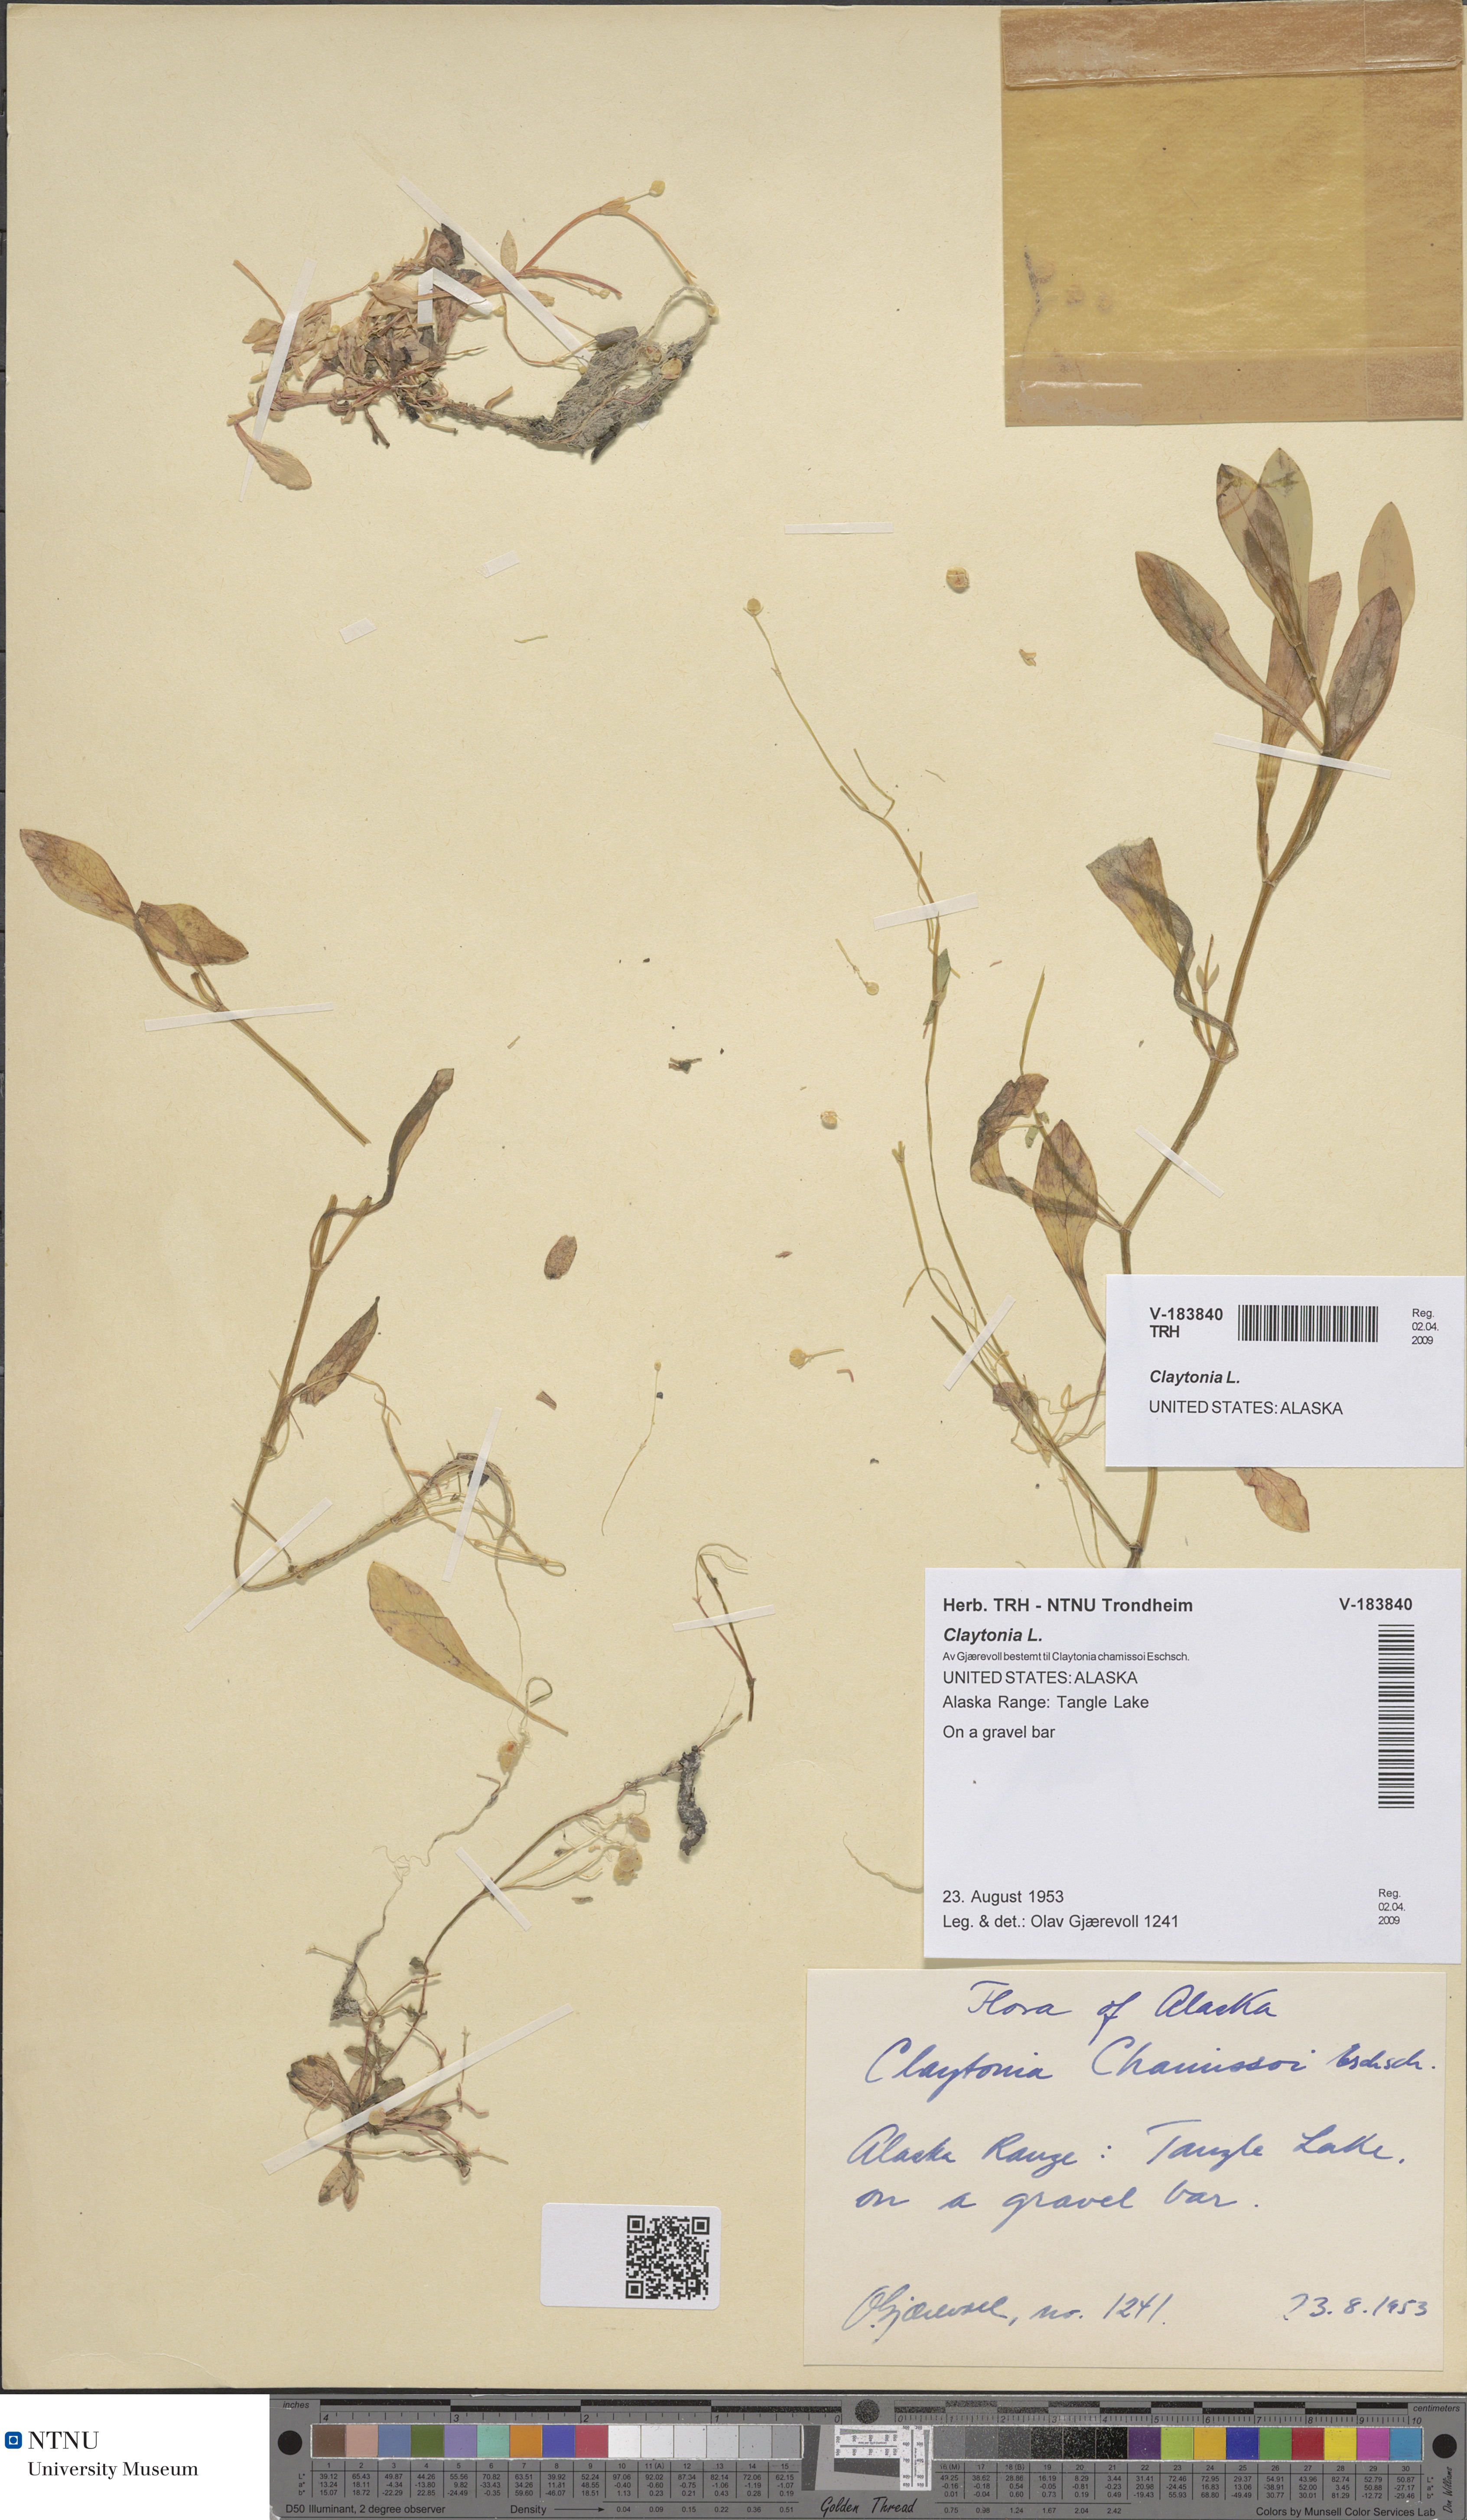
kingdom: Plantae
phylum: Tracheophyta
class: Magnoliopsida
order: Caryophyllales
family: Montiaceae
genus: Claytonia
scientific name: Claytonia
